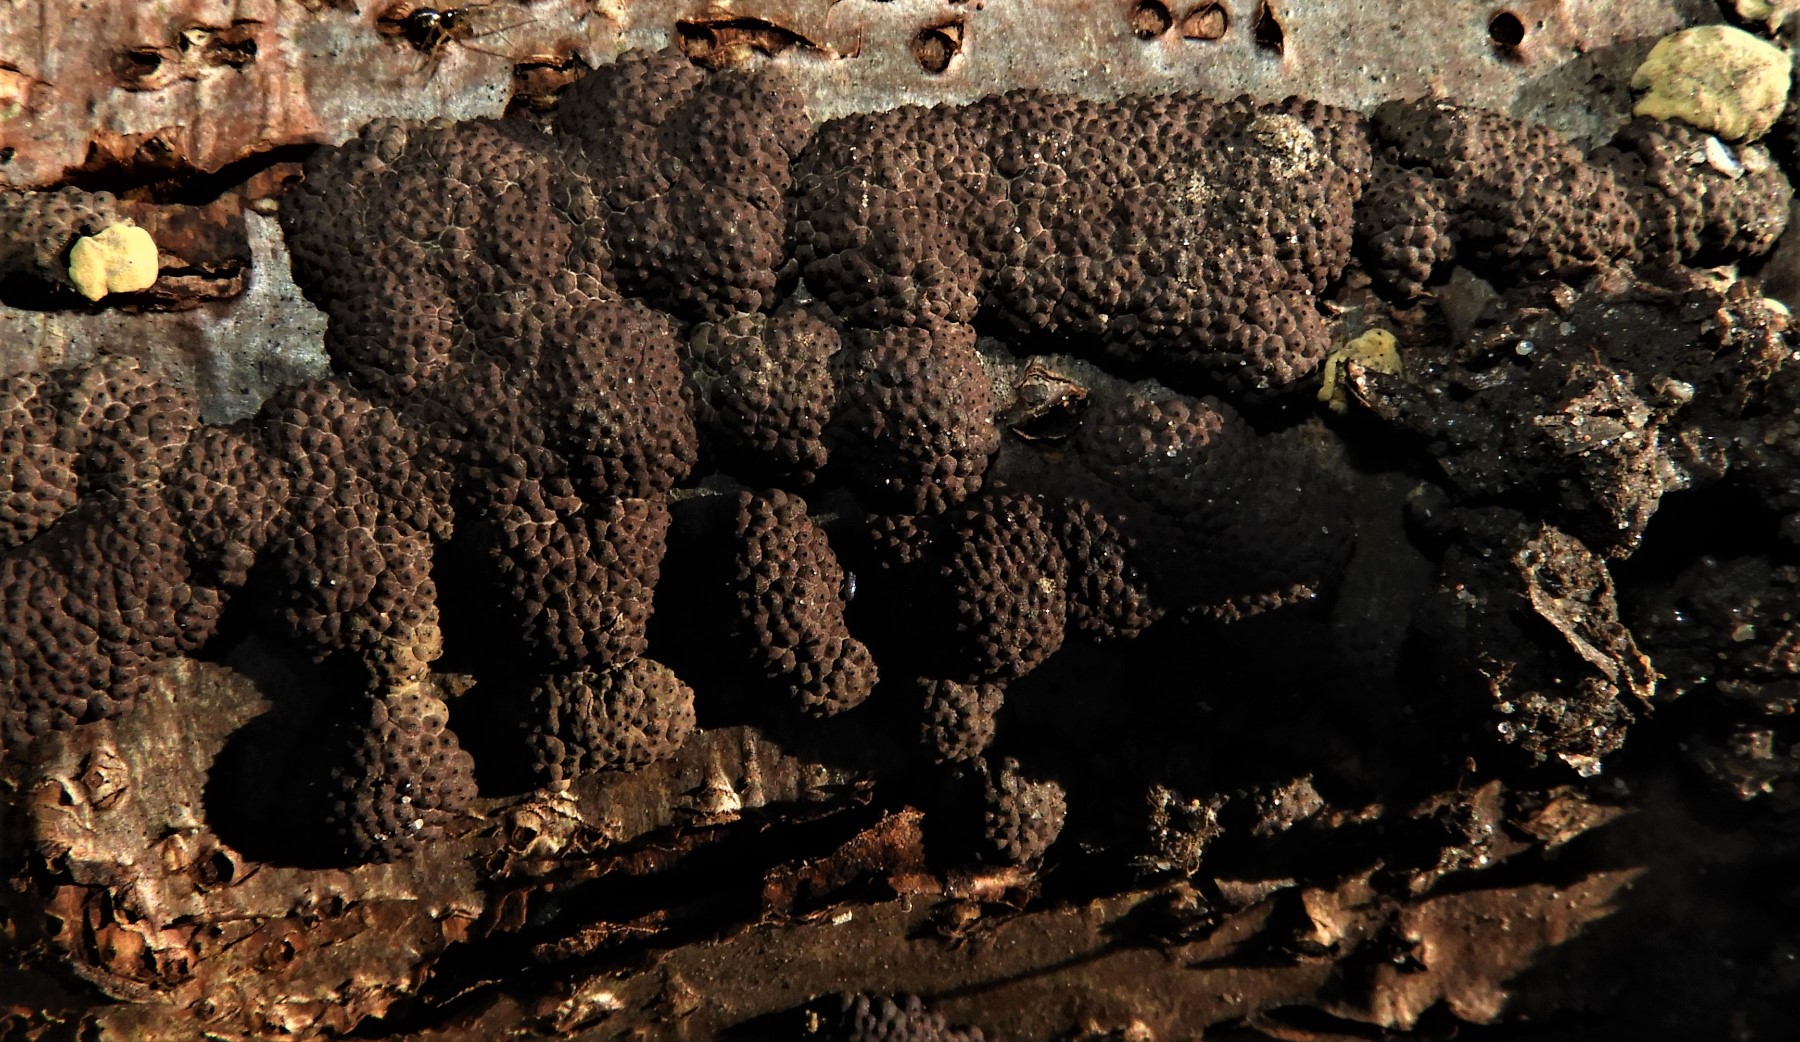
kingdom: Fungi
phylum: Ascomycota
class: Sordariomycetes
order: Xylariales
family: Hypoxylaceae
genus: Jackrogersella
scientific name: Jackrogersella multiformis
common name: foranderlig kulbær
